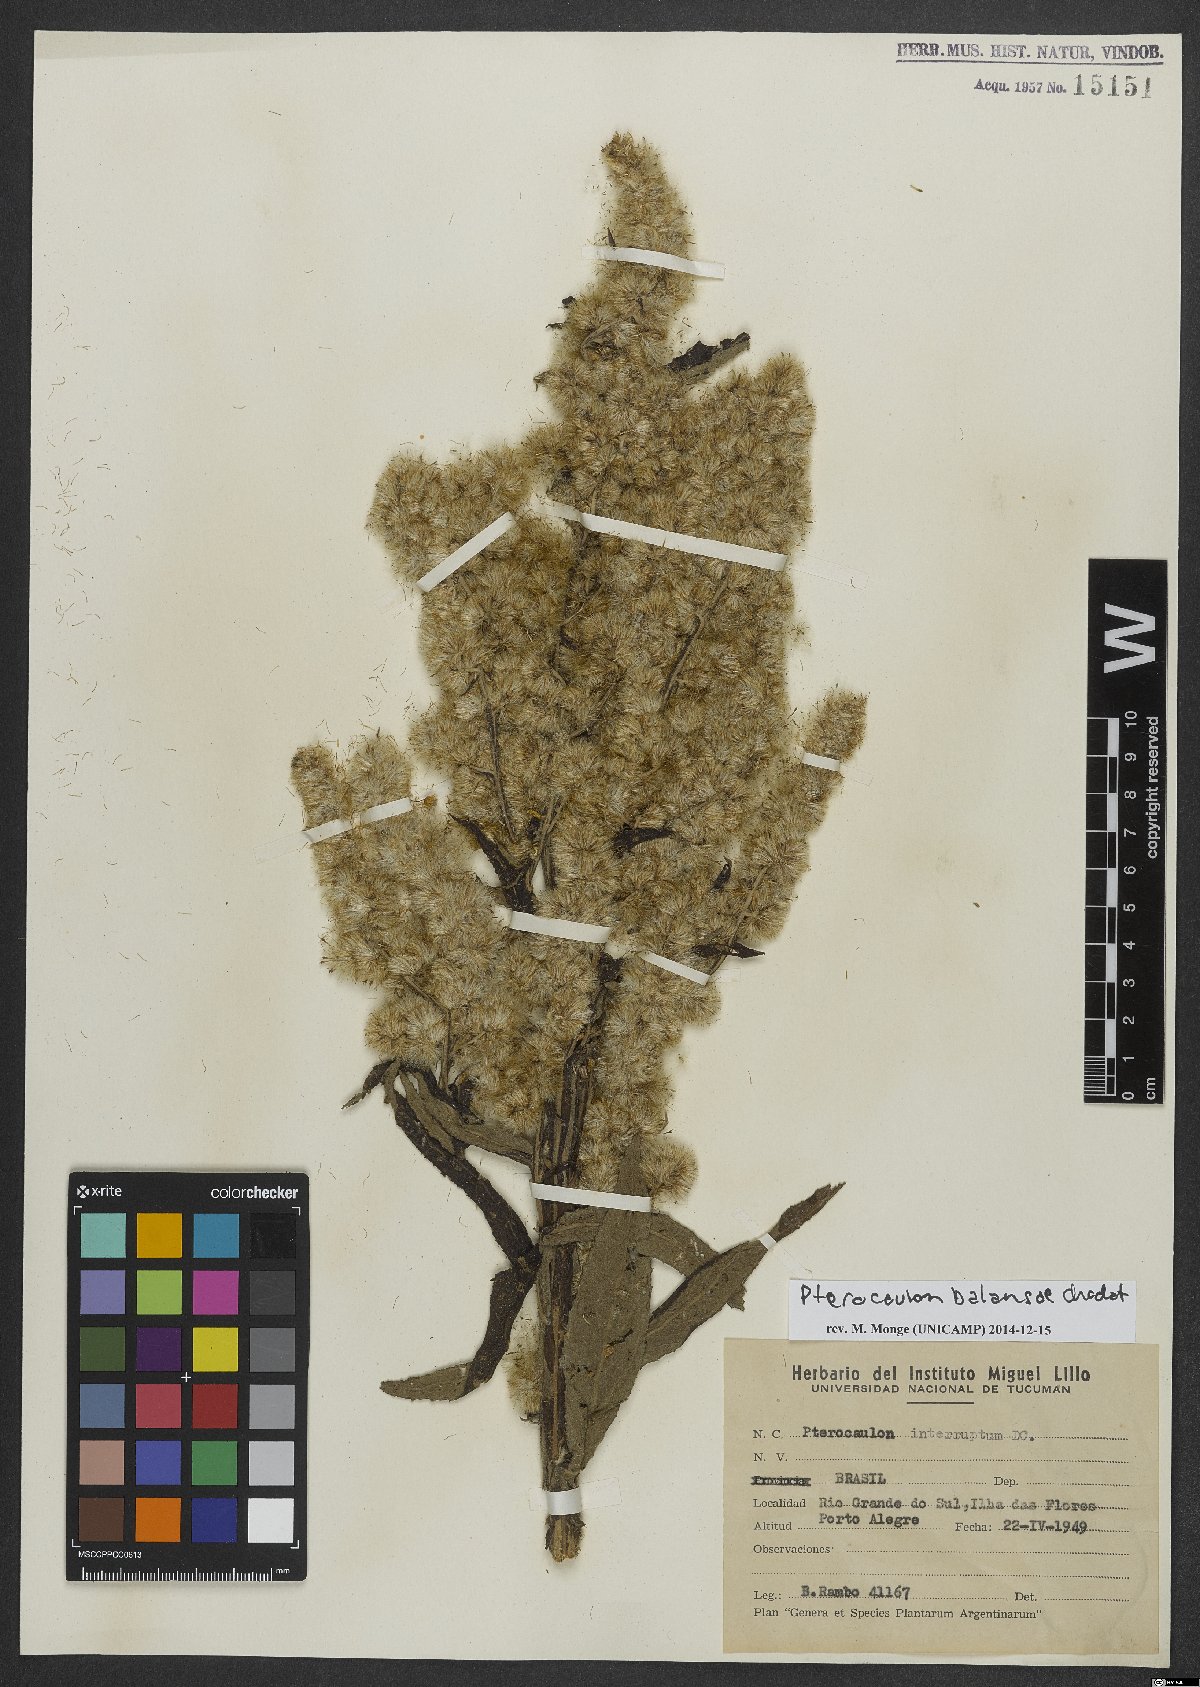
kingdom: Plantae
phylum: Tracheophyta
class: Magnoliopsida
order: Asterales
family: Asteraceae
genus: Pterocaulon
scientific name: Pterocaulon balansae
